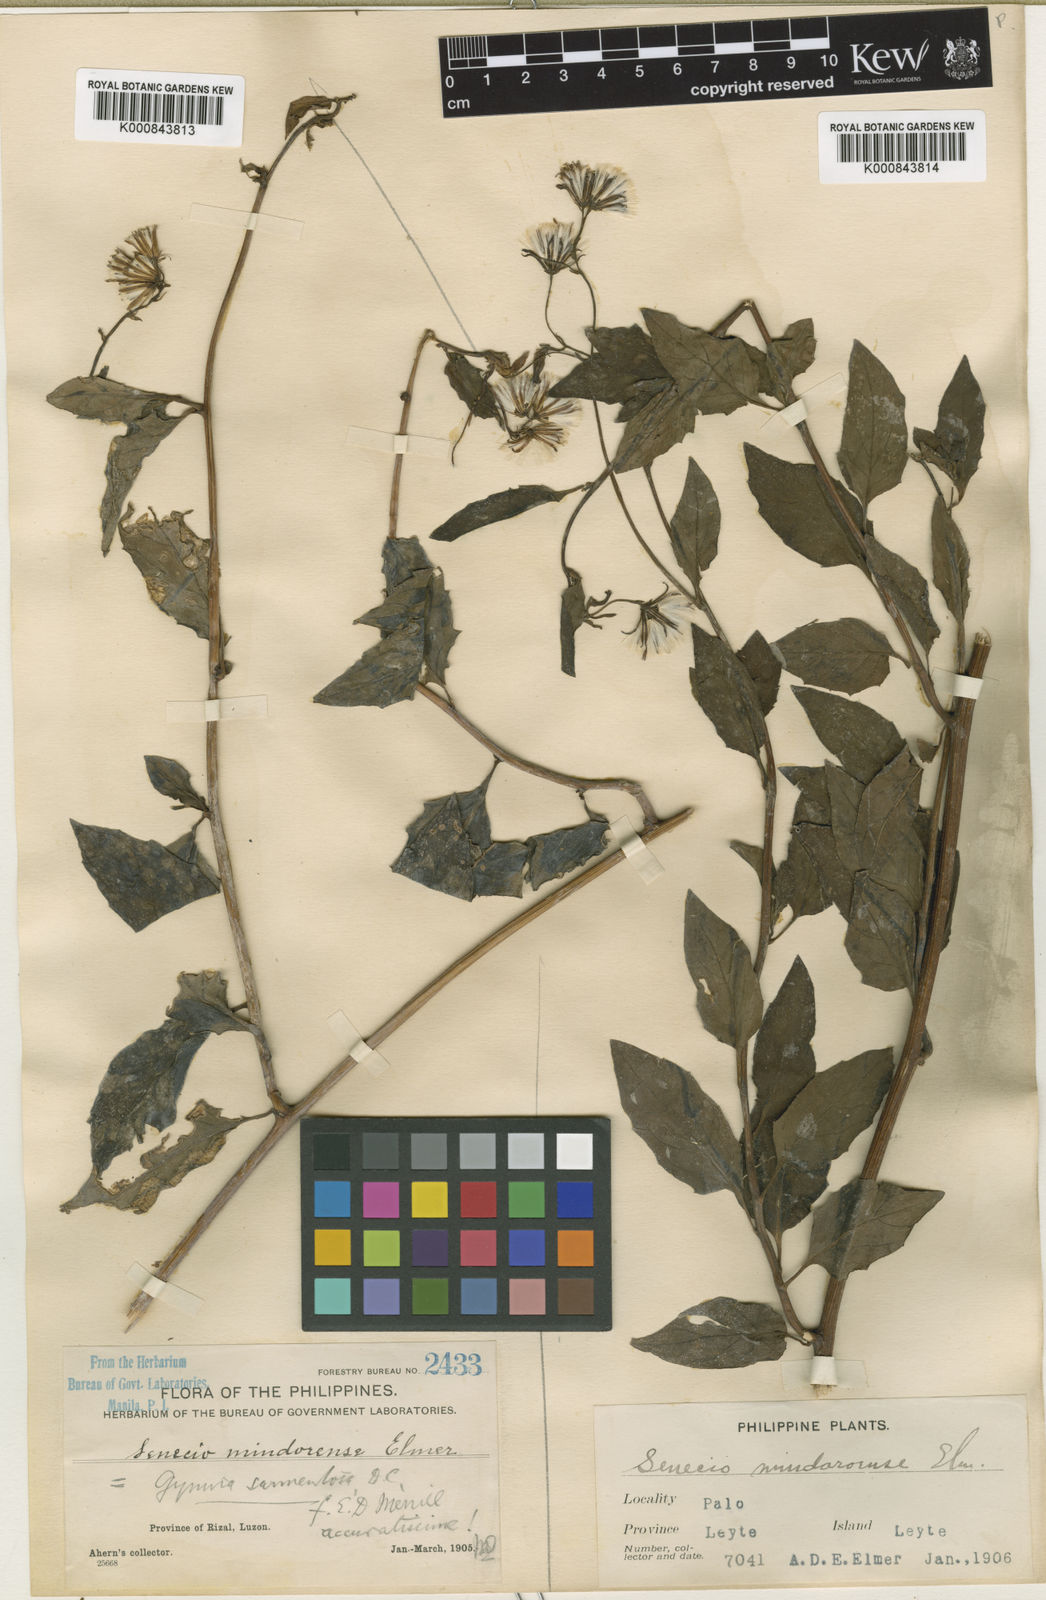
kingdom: Plantae
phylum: Tracheophyta
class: Magnoliopsida
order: Asterales
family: Asteraceae
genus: Gynura
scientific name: Gynura procumbens
